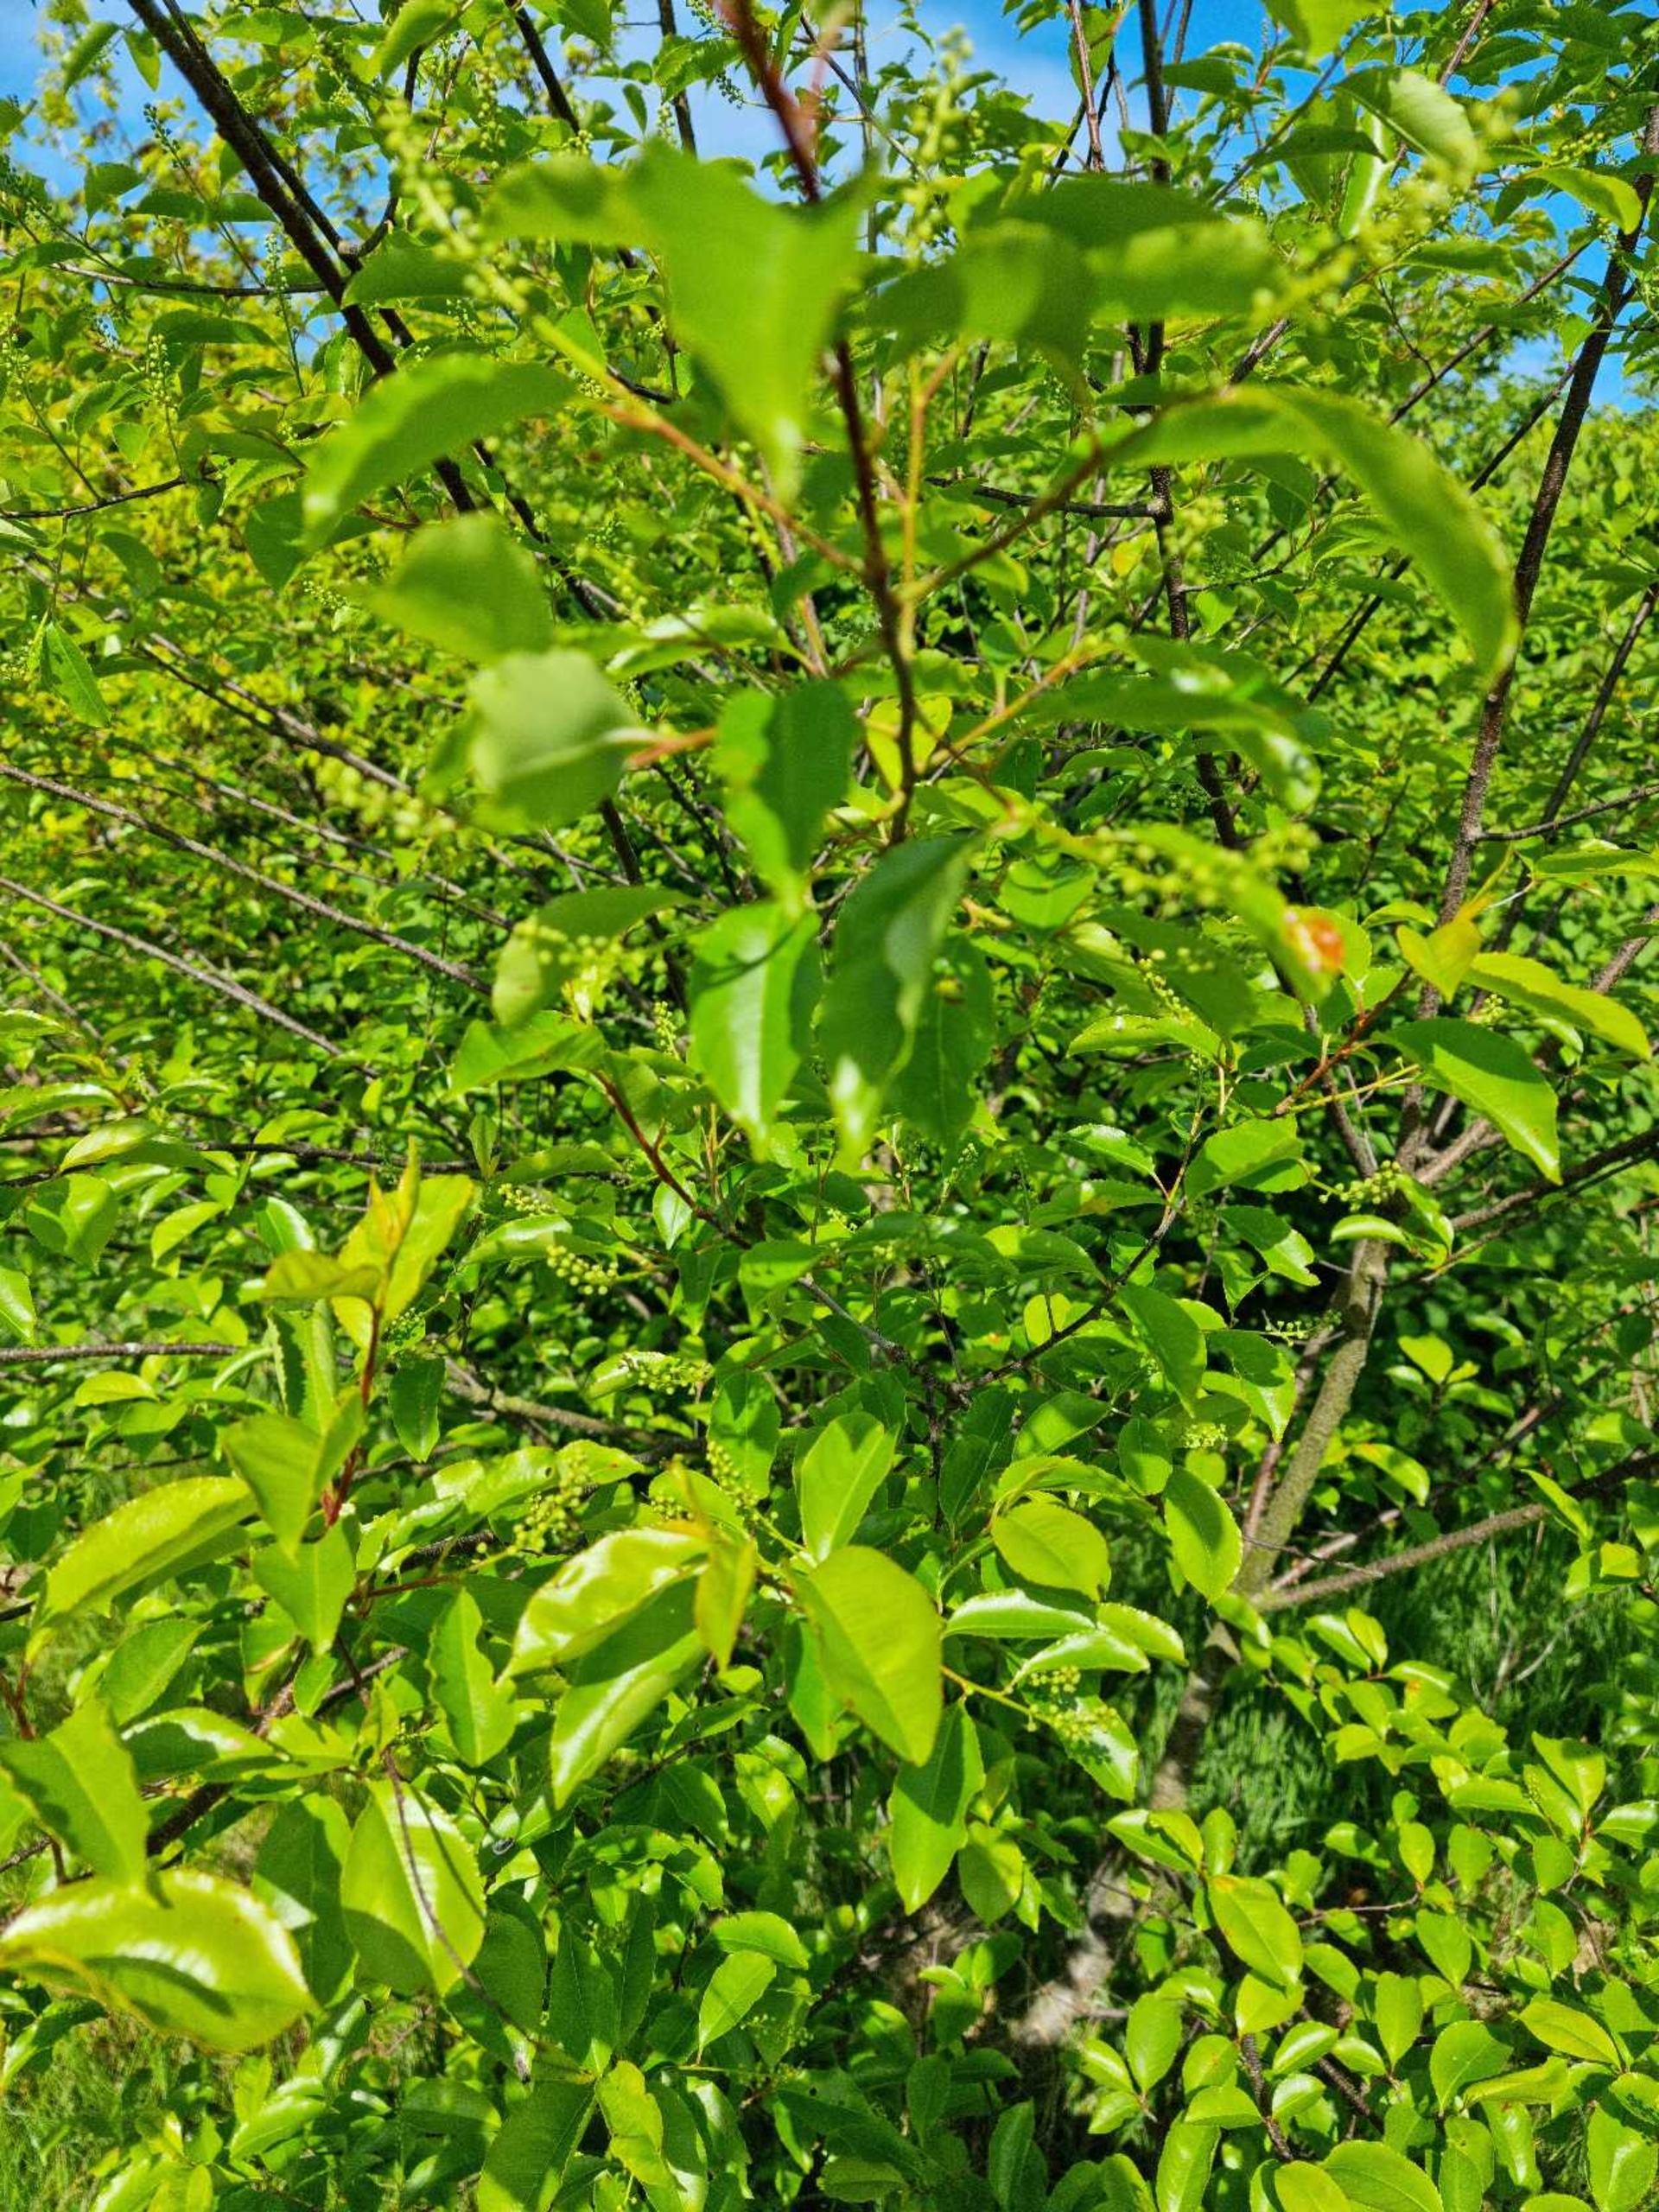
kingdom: Plantae
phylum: Tracheophyta
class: Magnoliopsida
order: Rosales
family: Rosaceae
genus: Prunus
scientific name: Prunus serotina
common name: Glansbladet hæg
